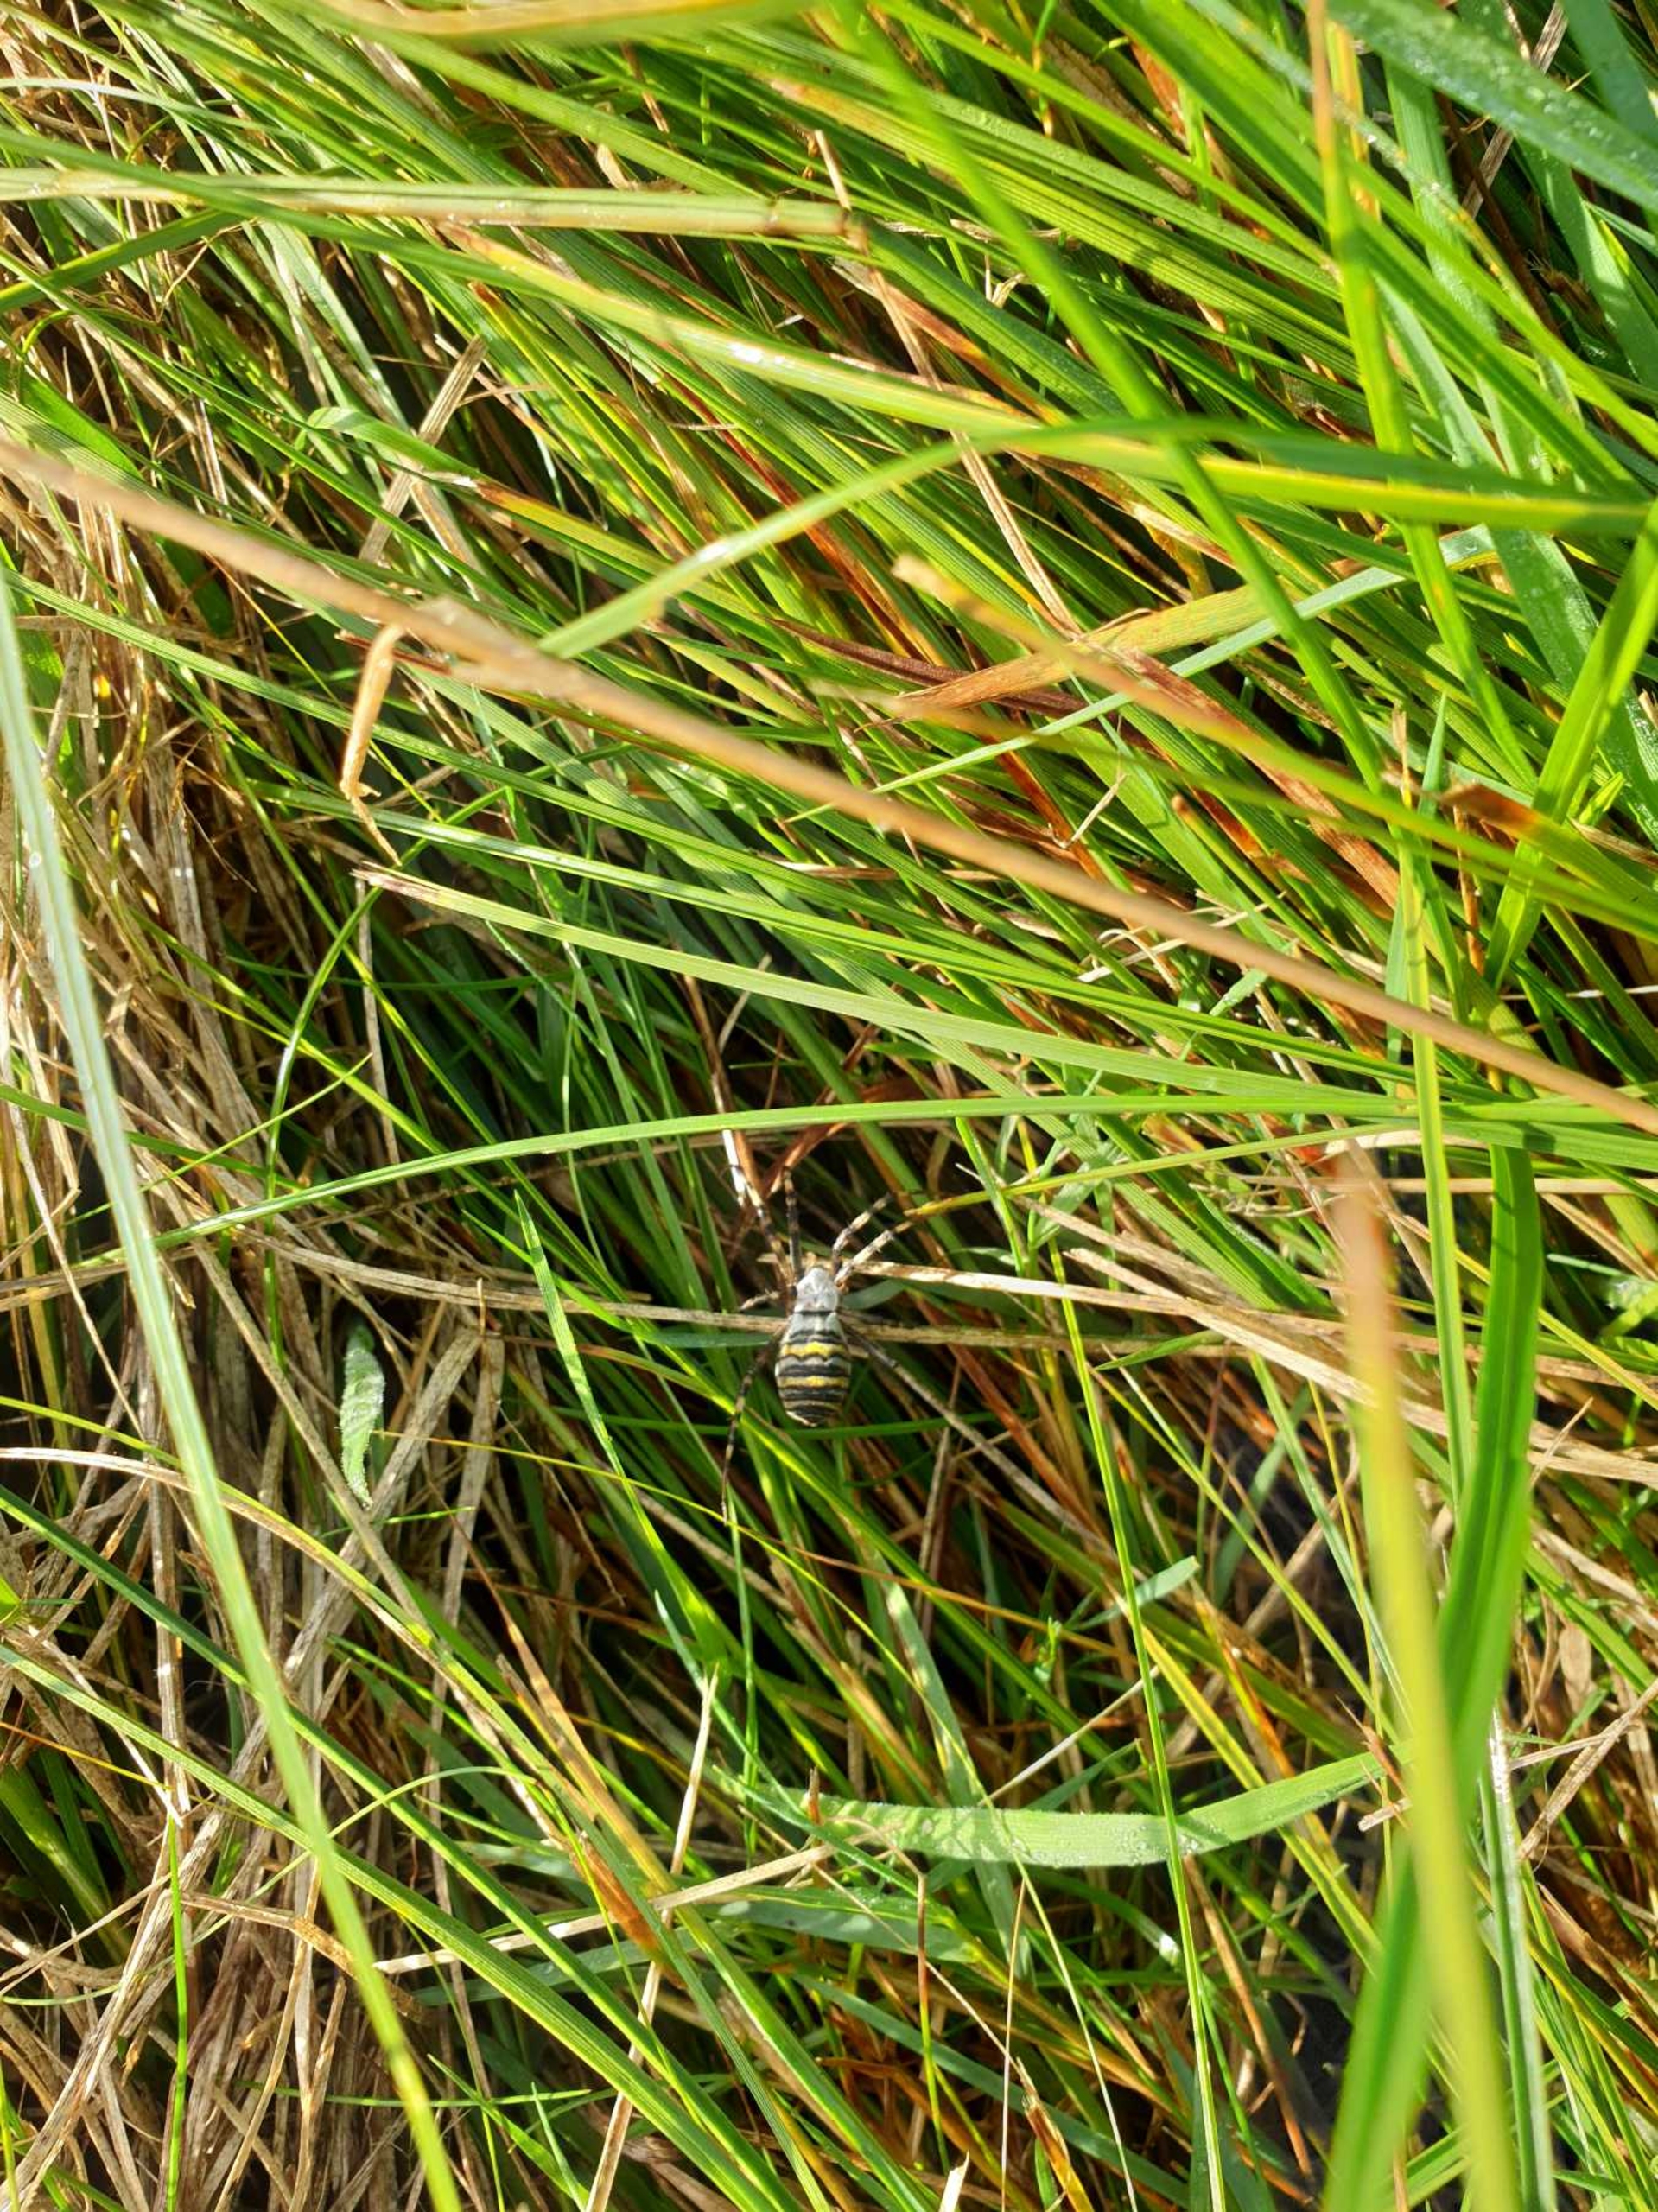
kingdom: Animalia
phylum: Arthropoda
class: Arachnida
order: Araneae
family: Araneidae
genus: Argiope
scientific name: Argiope bruennichi
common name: Hvepseedderkop
